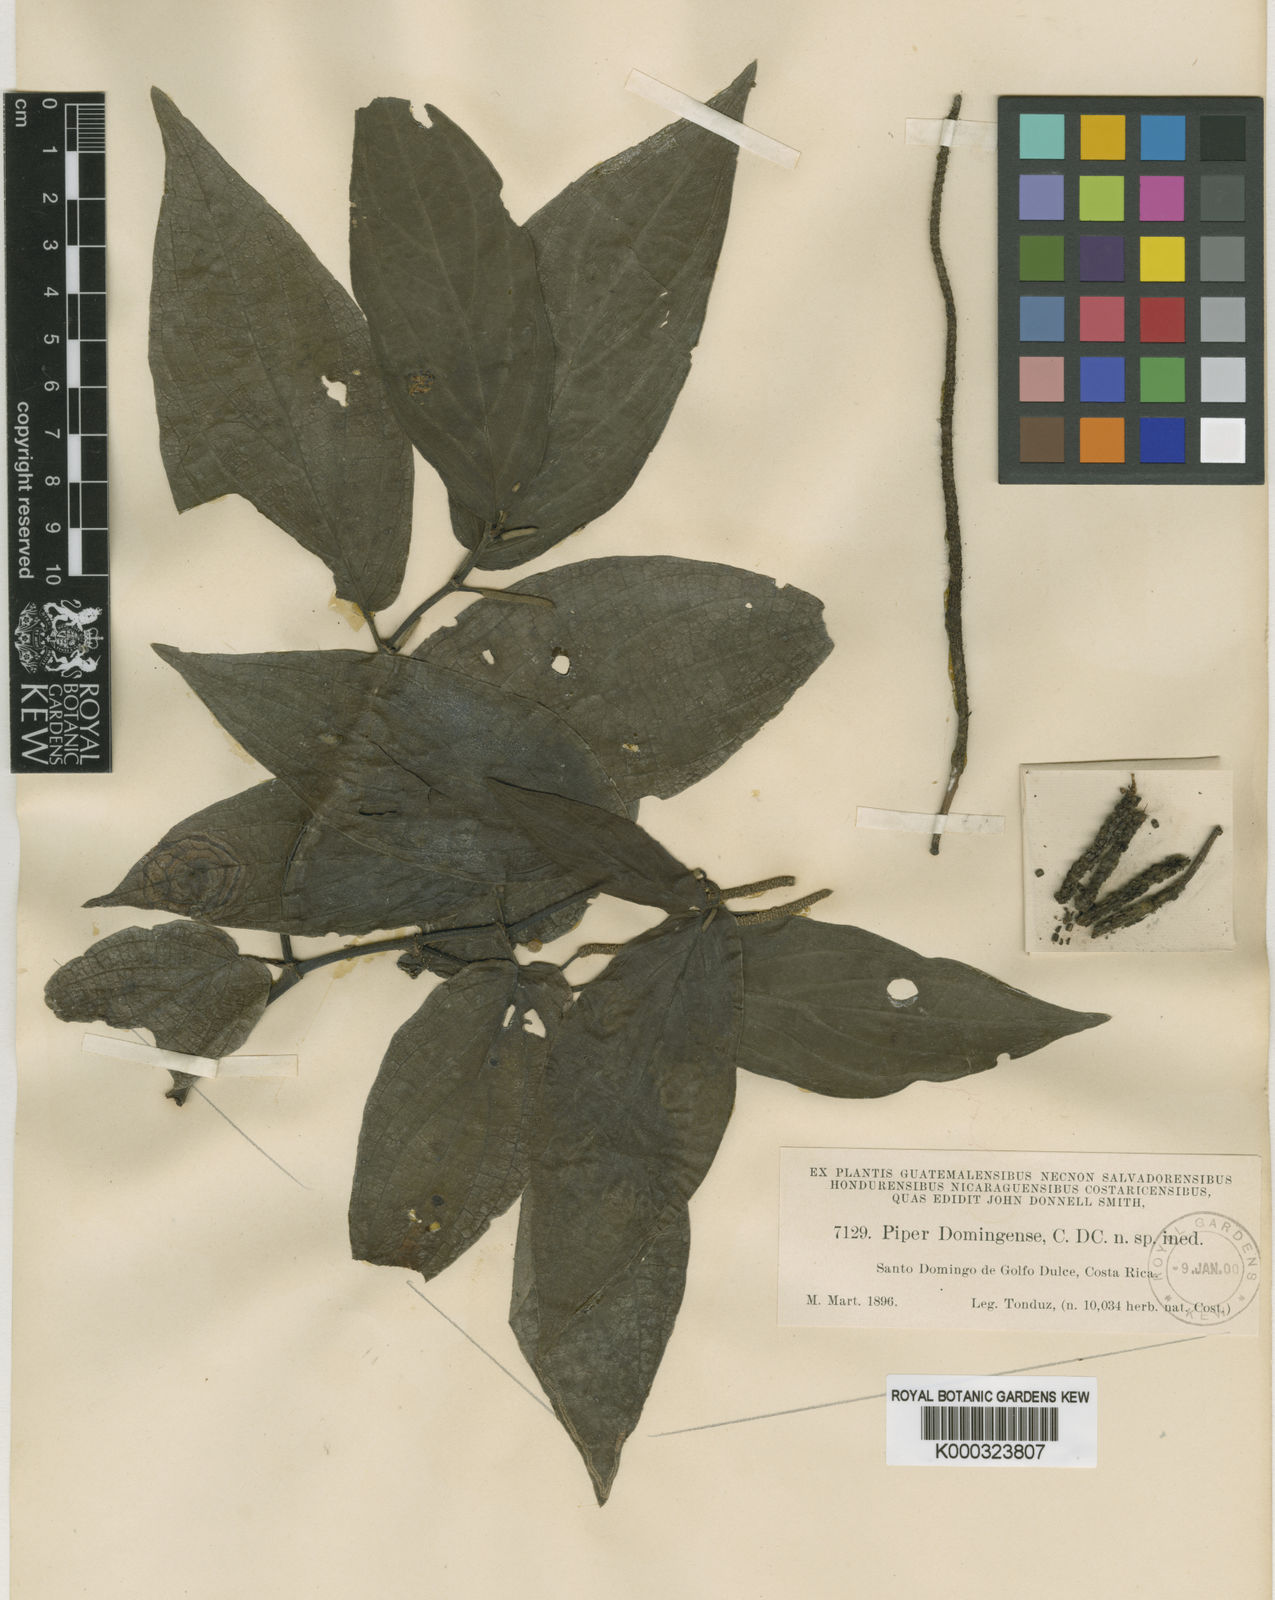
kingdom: Plantae
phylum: Tracheophyta
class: Magnoliopsida
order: Piperales
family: Piperaceae
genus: Piper
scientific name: Piper domingense
